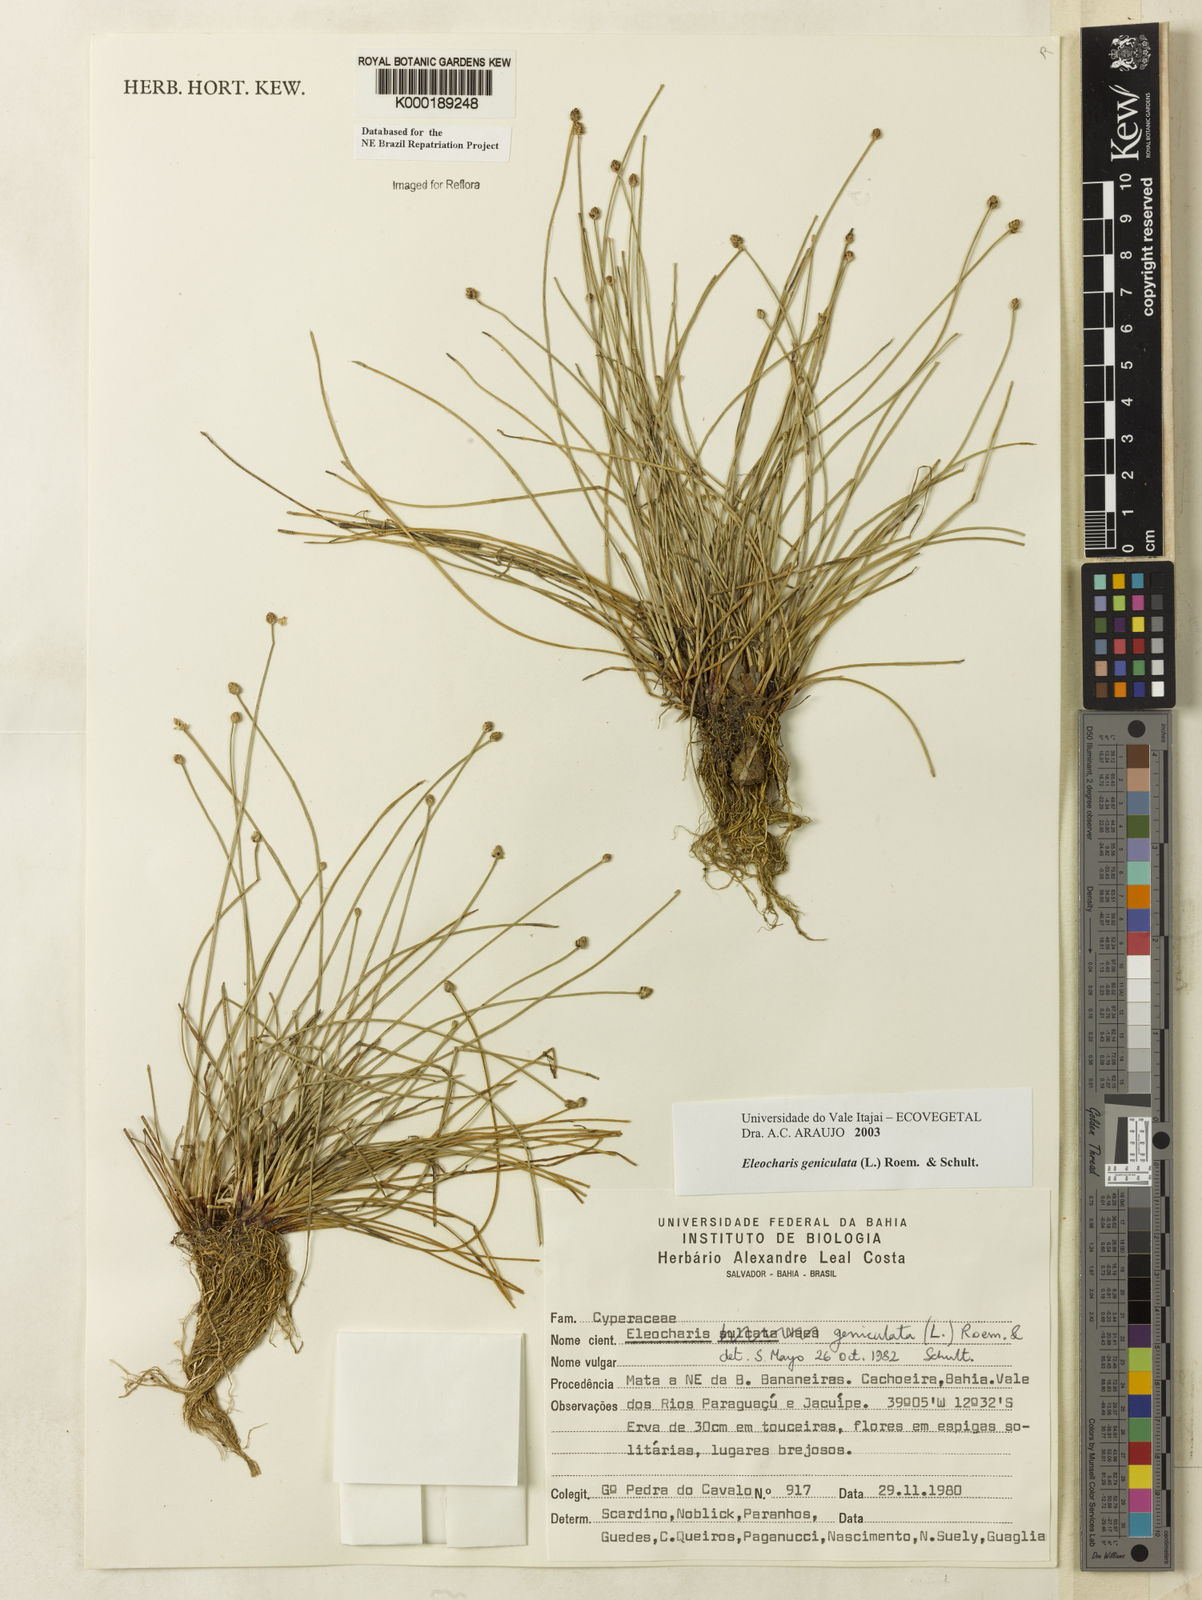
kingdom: Plantae
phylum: Tracheophyta
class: Liliopsida
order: Poales
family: Cyperaceae
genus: Eleocharis
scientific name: Eleocharis geniculata
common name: Canada spikesedge
